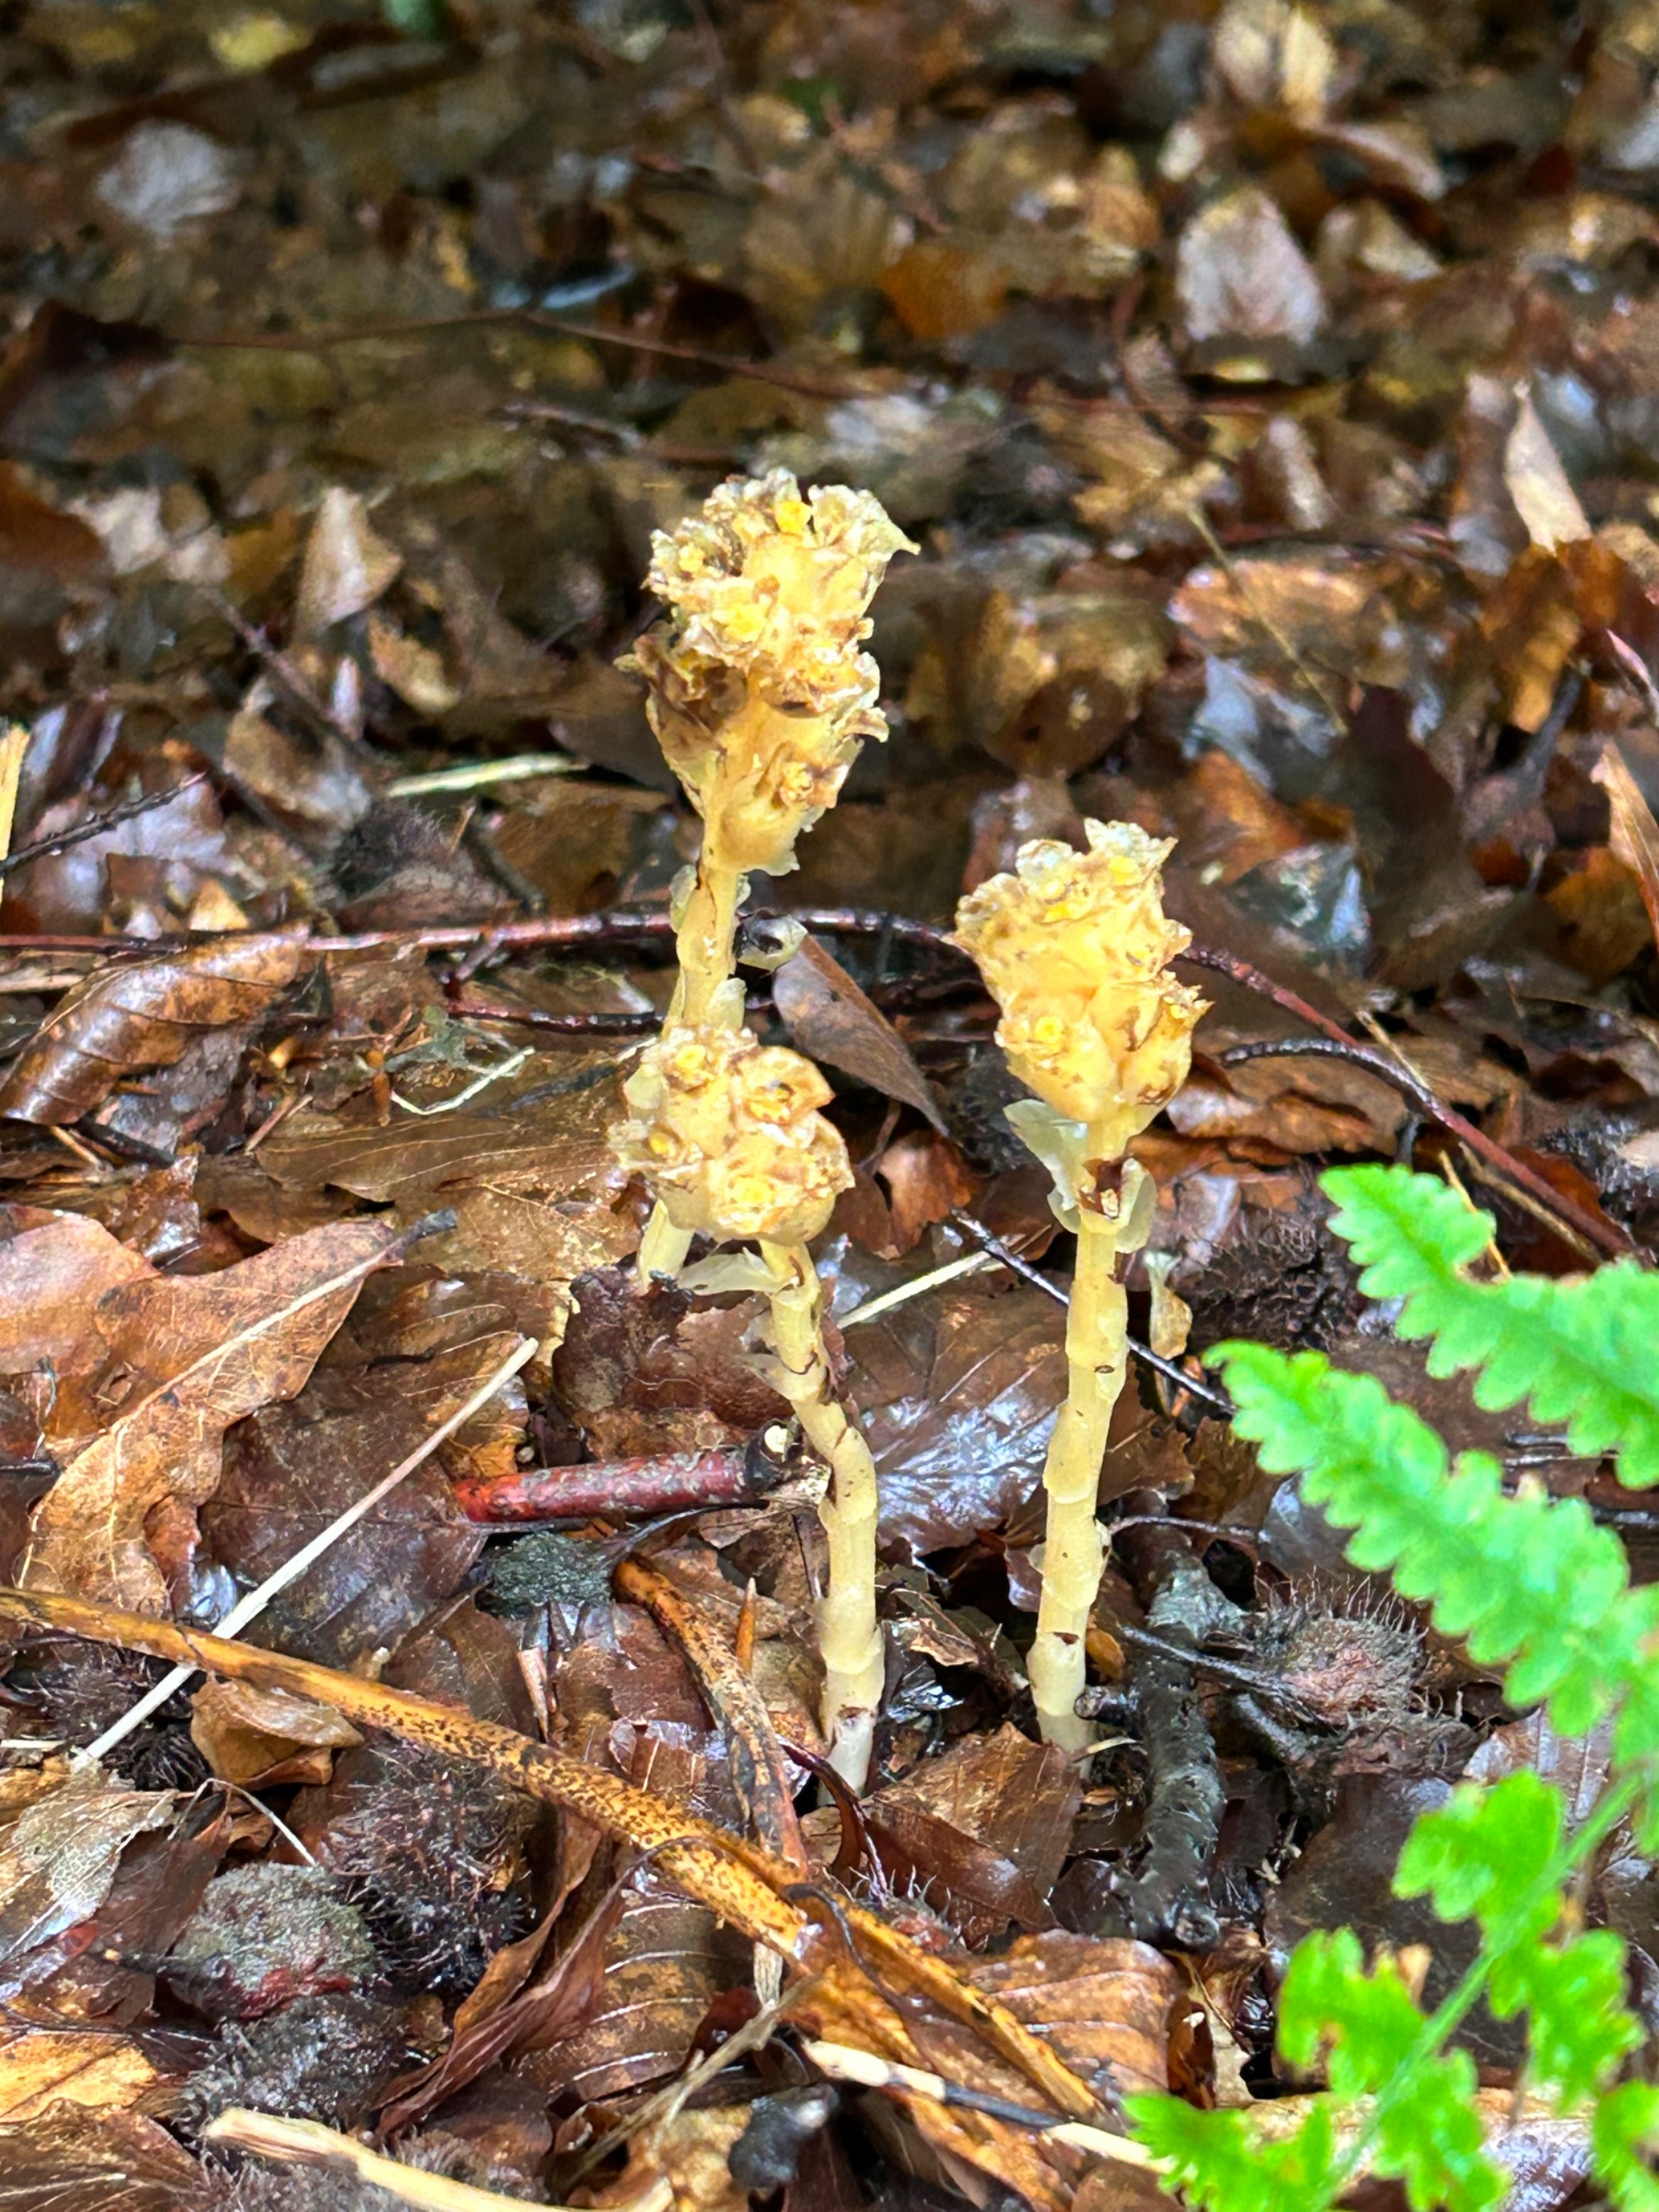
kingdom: Plantae
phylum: Tracheophyta
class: Magnoliopsida
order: Ericales
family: Ericaceae
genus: Hypopitys
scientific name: Hypopitys monotropa
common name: Snylterod
